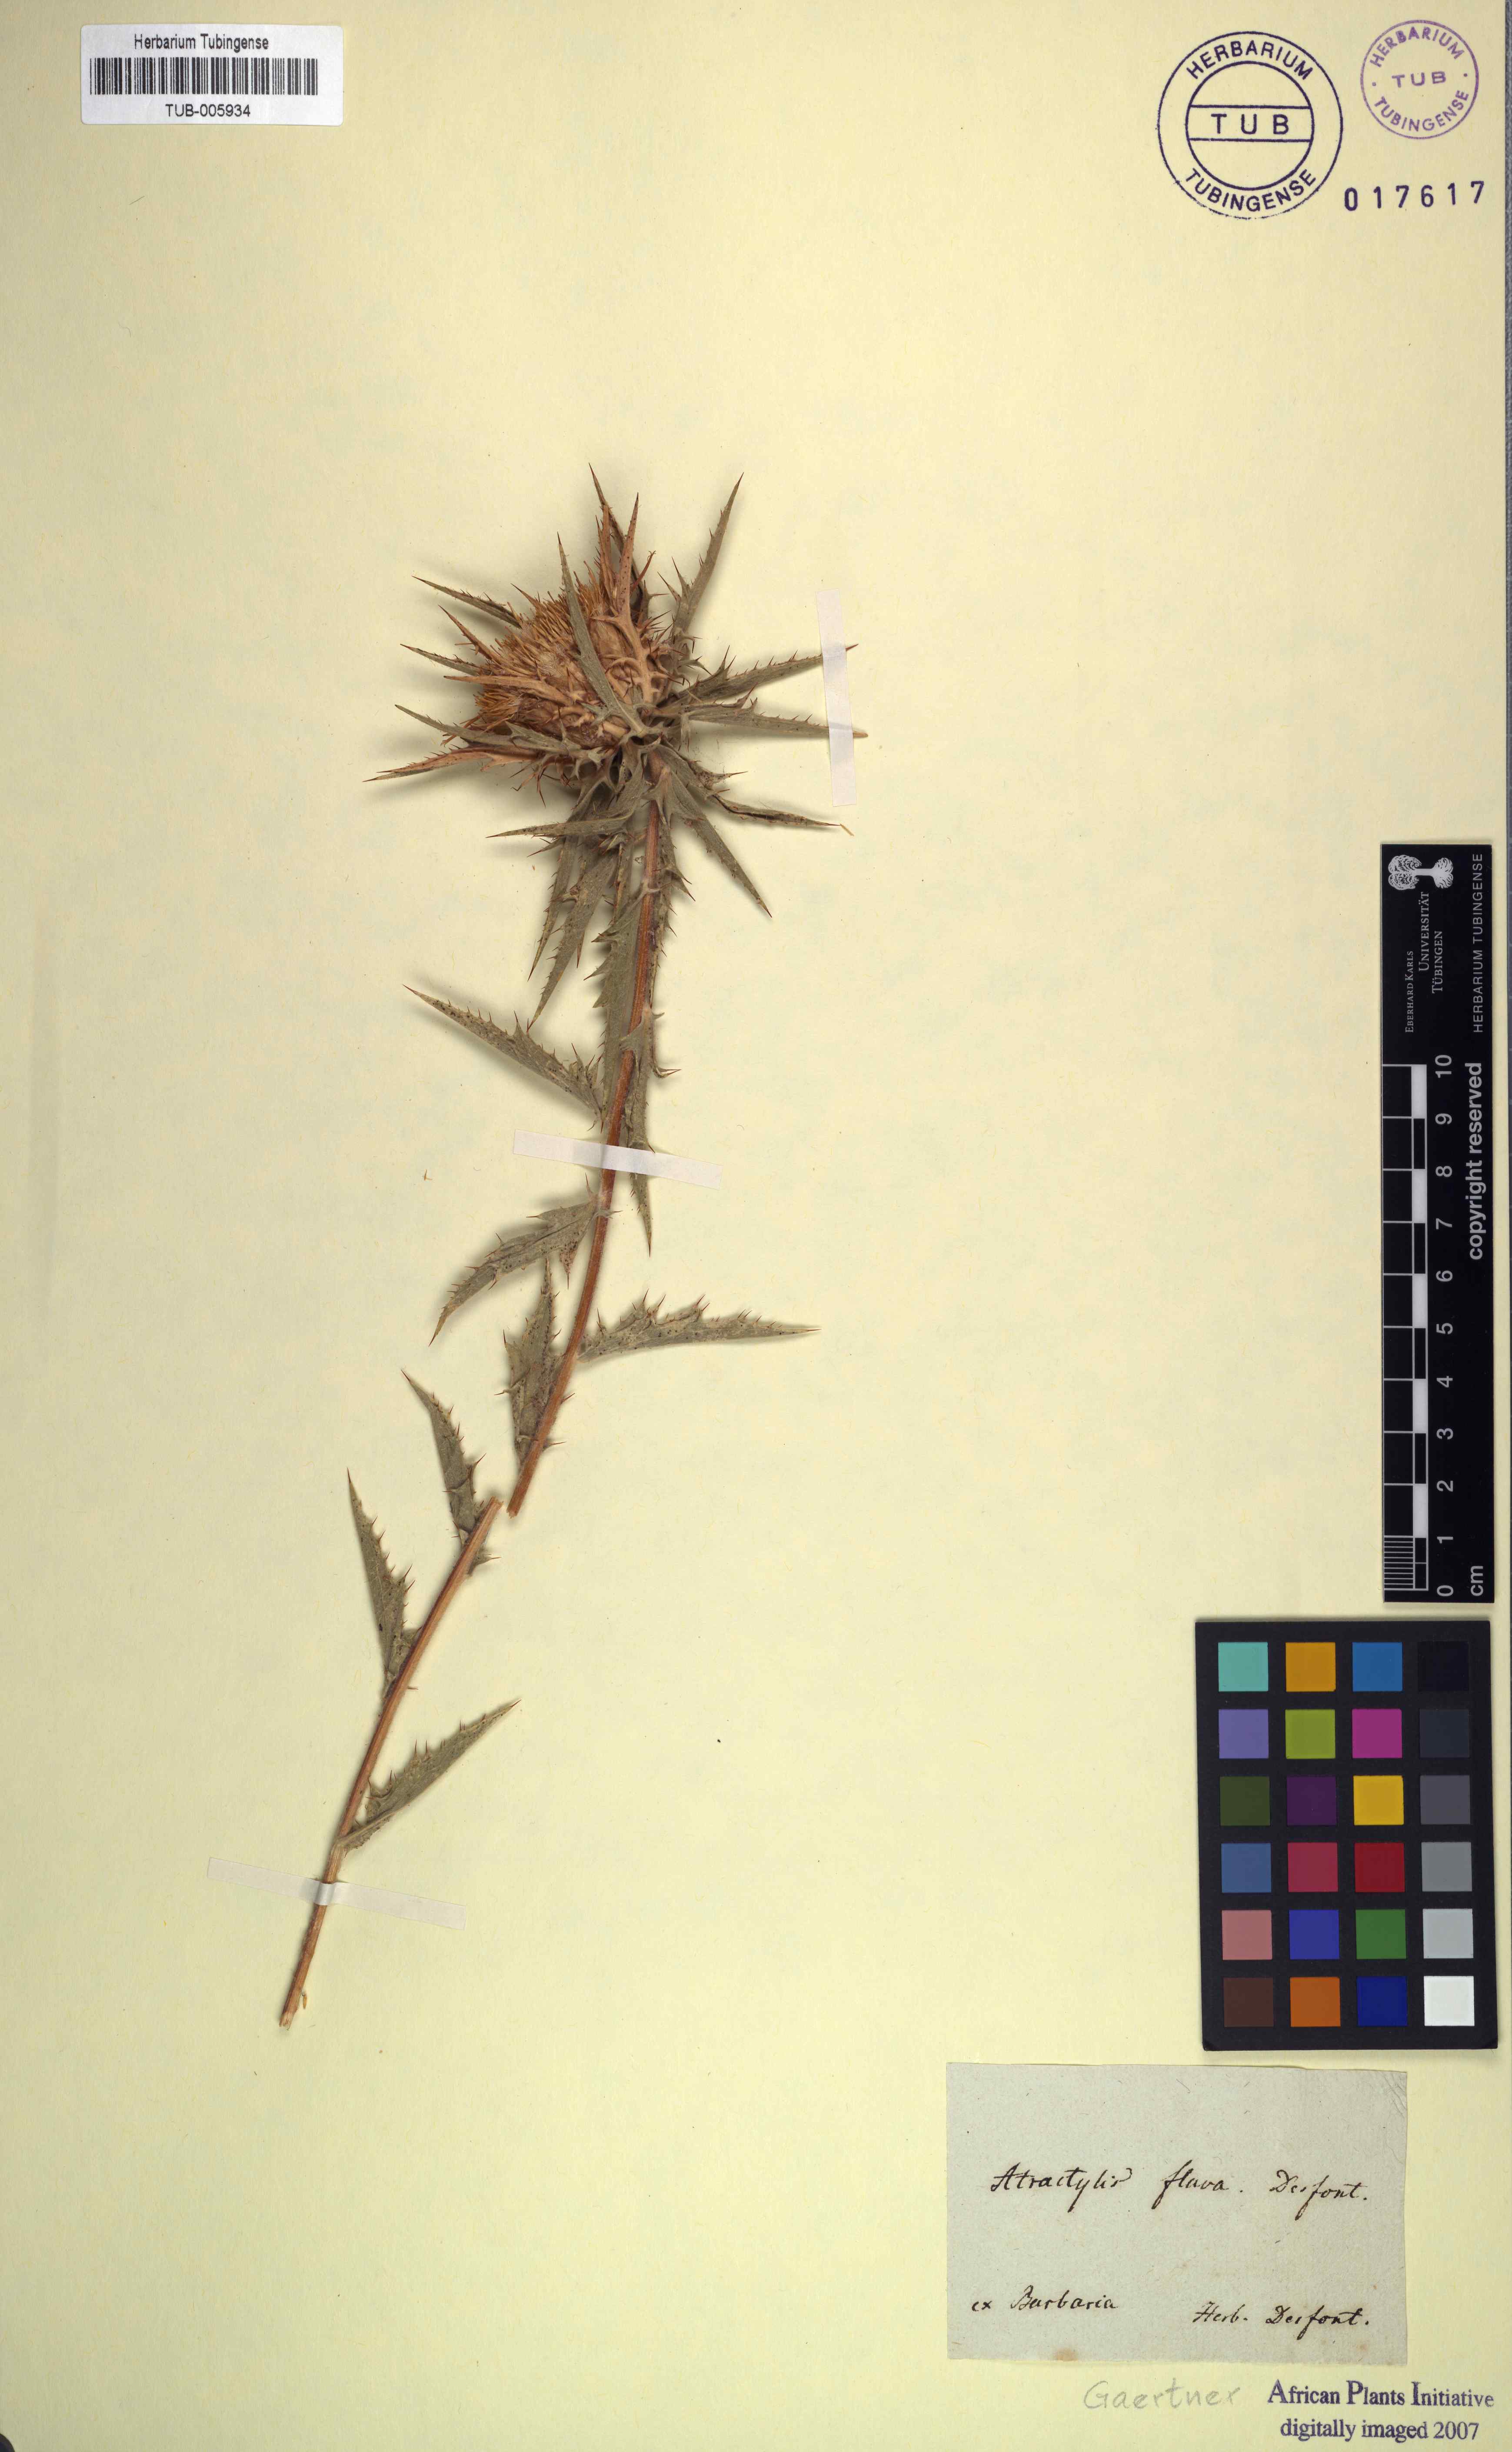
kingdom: Plantae
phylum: Tracheophyta
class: Magnoliopsida
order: Asterales
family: Asteraceae
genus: Atractylis
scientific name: Atractylis carduus
